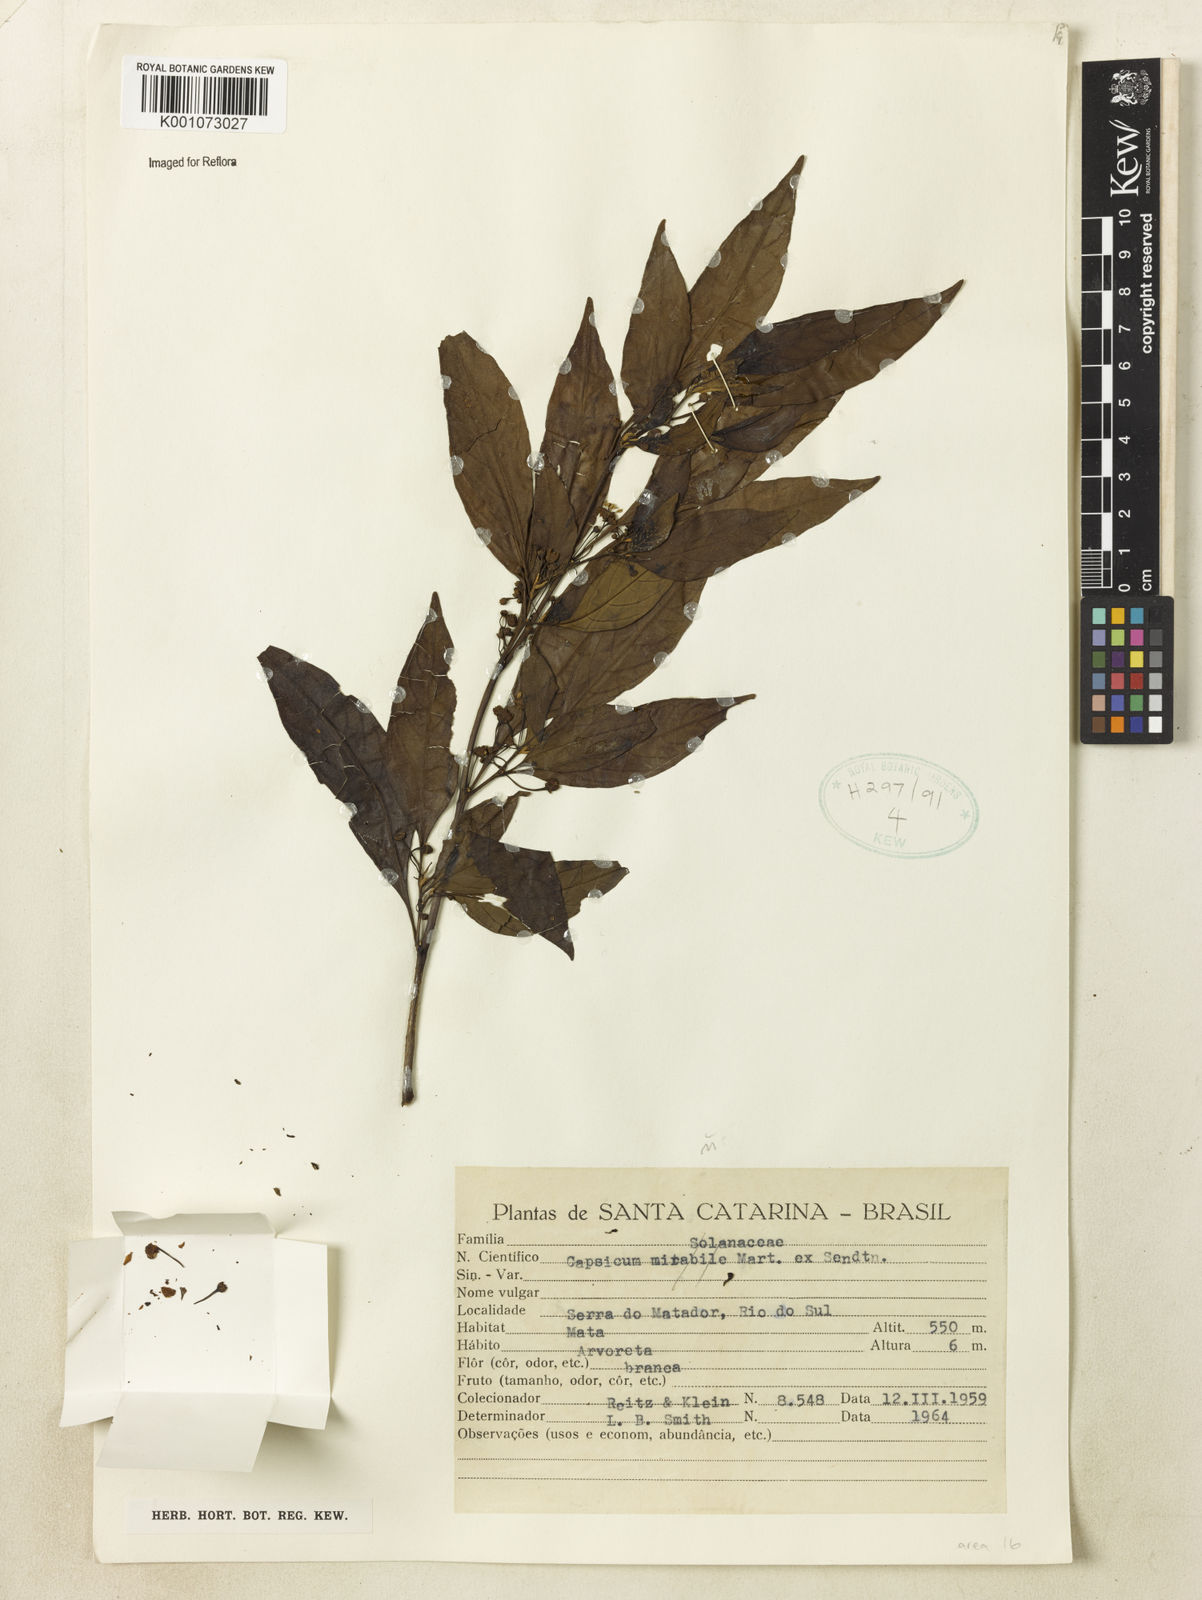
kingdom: Plantae
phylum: Tracheophyta
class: Magnoliopsida
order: Solanales
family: Solanaceae
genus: Capsicum
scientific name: Capsicum
